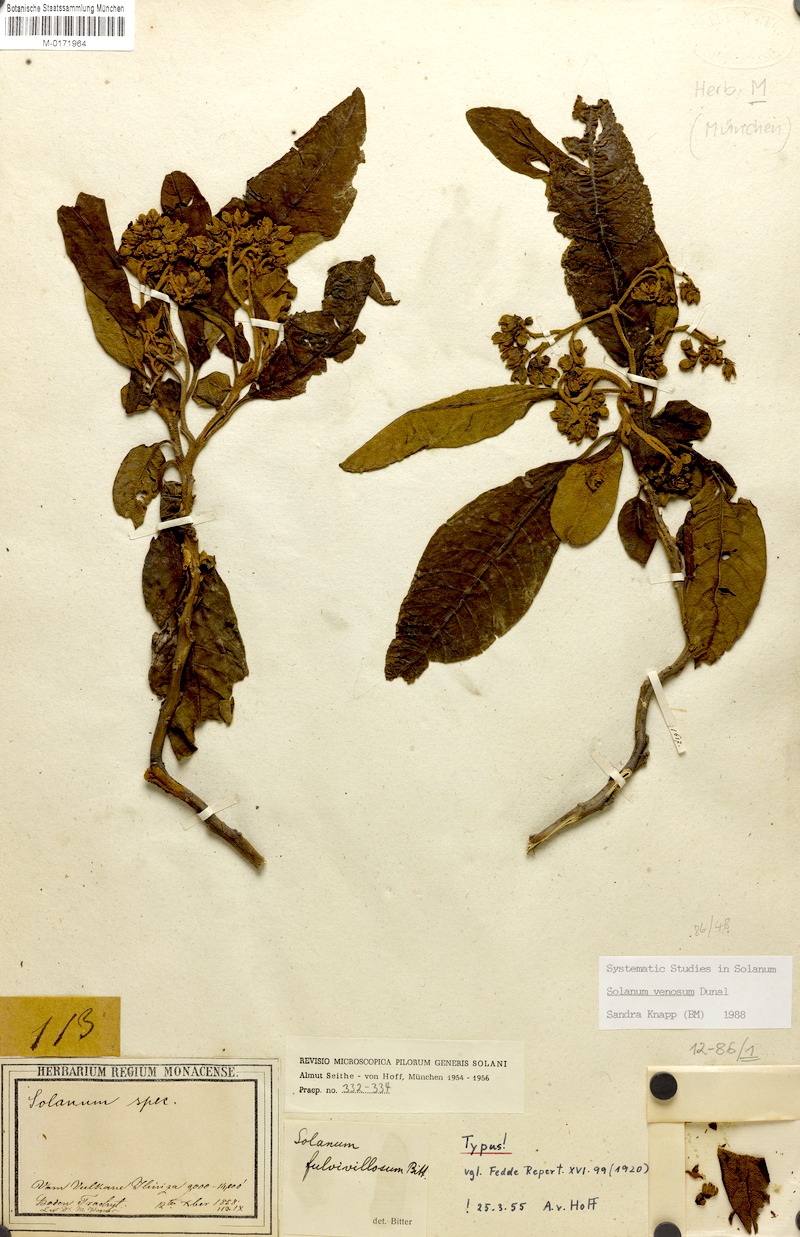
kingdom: Plantae
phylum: Tracheophyta
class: Magnoliopsida
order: Solanales
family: Solanaceae
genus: Solanum
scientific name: Solanum venosum
